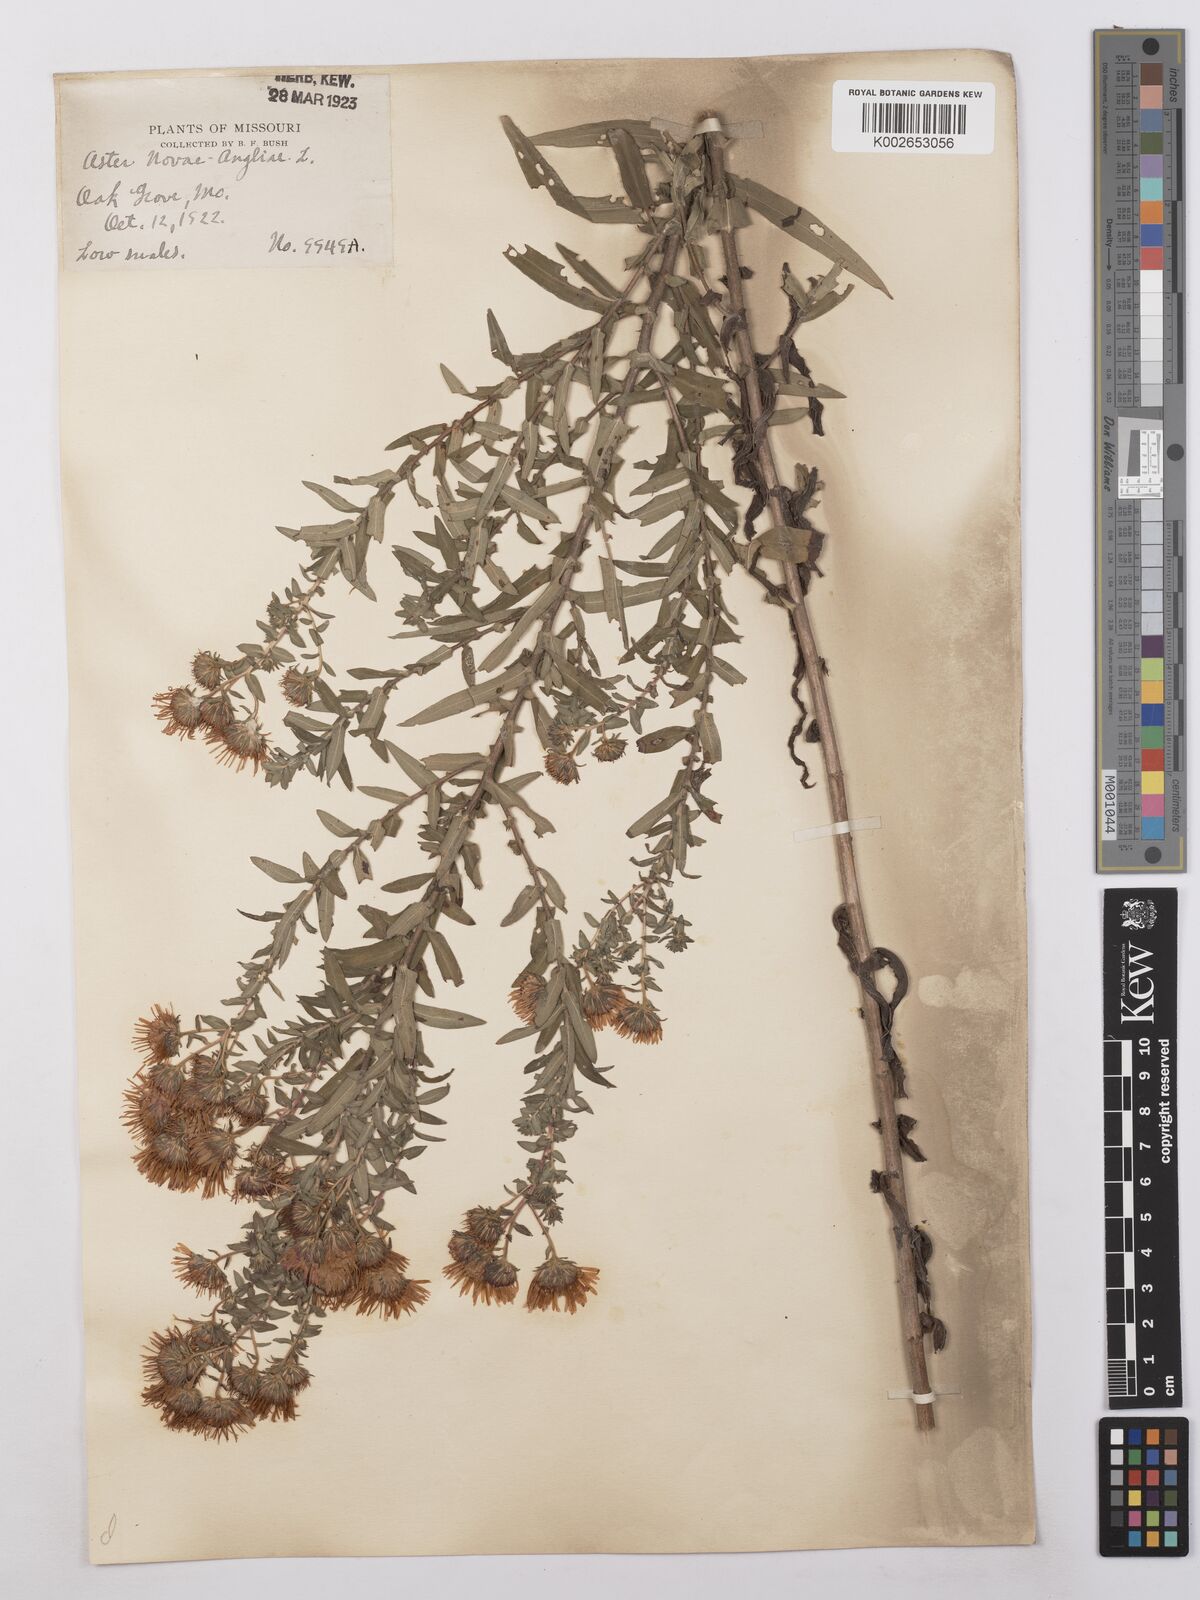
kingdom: Plantae
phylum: Tracheophyta
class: Magnoliopsida
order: Asterales
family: Asteraceae
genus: Symphyotrichum
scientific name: Symphyotrichum novae-angliae
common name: Michaelmas daisy
